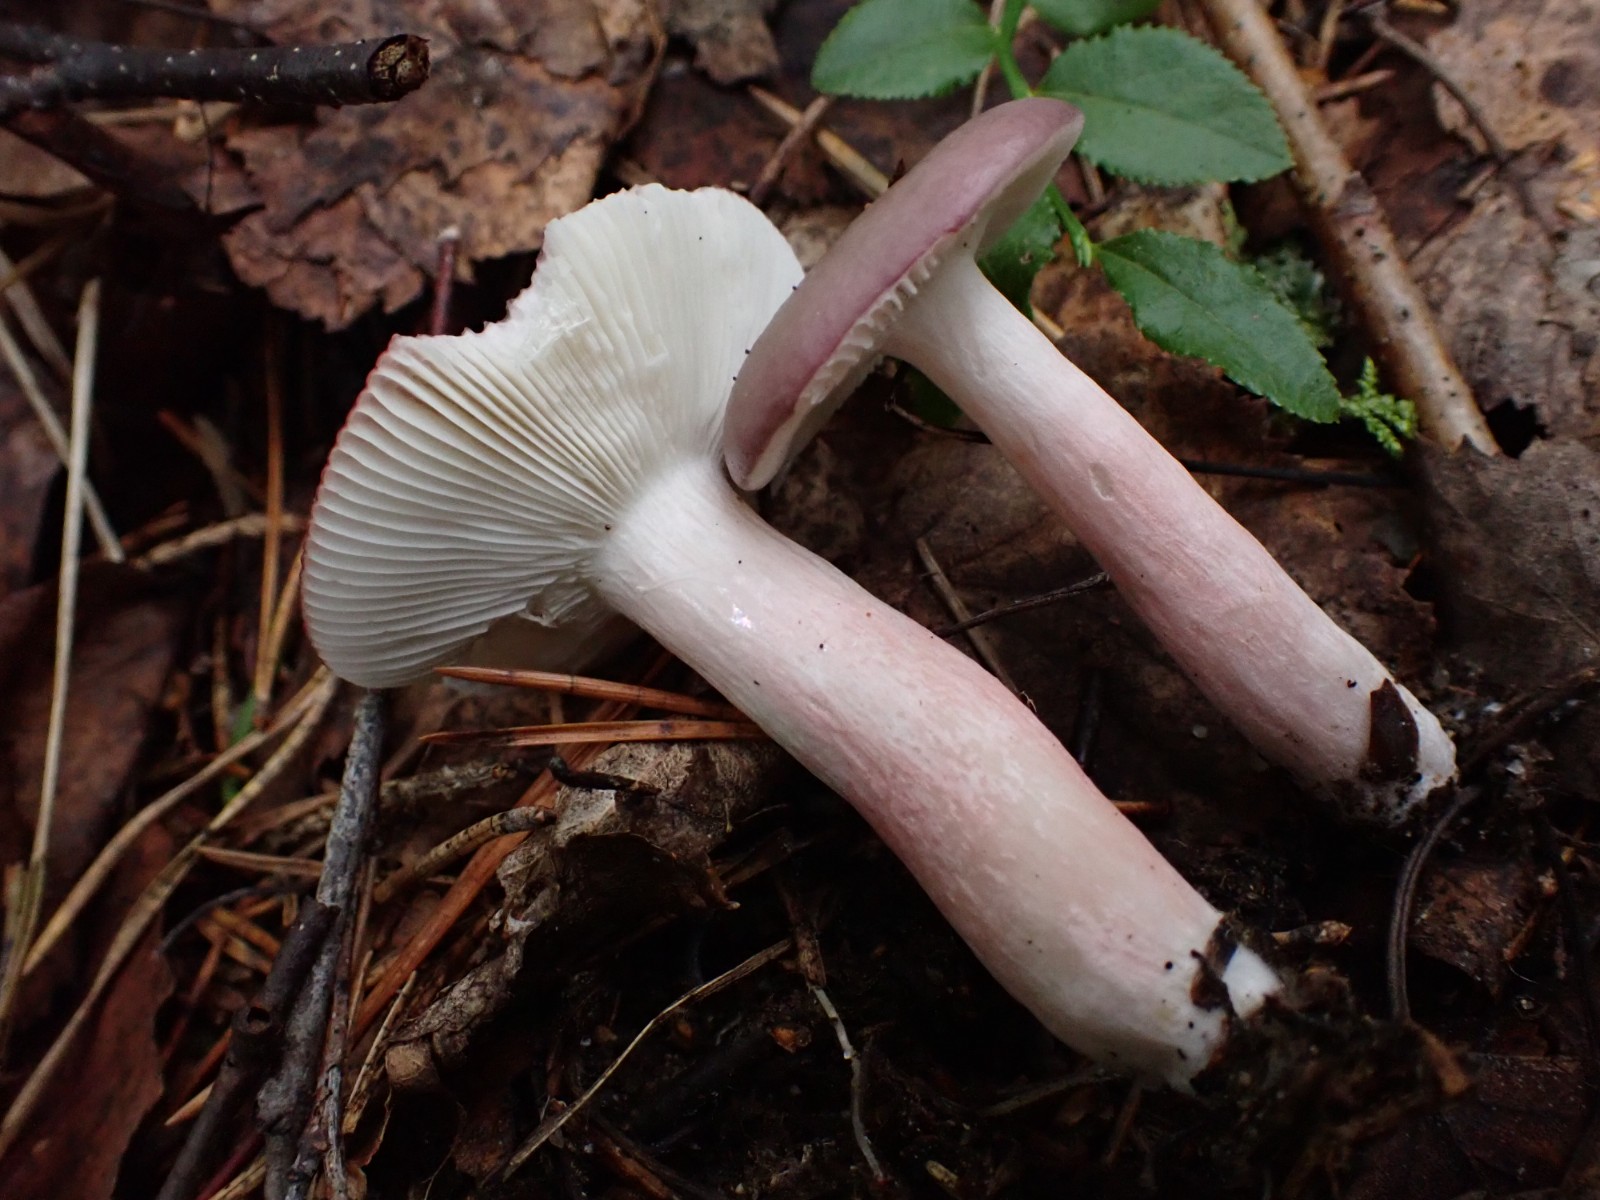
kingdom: Fungi
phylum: Basidiomycota
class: Agaricomycetes
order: Russulales
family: Russulaceae
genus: Russula
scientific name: Russula gracillima
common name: slank skørhat
